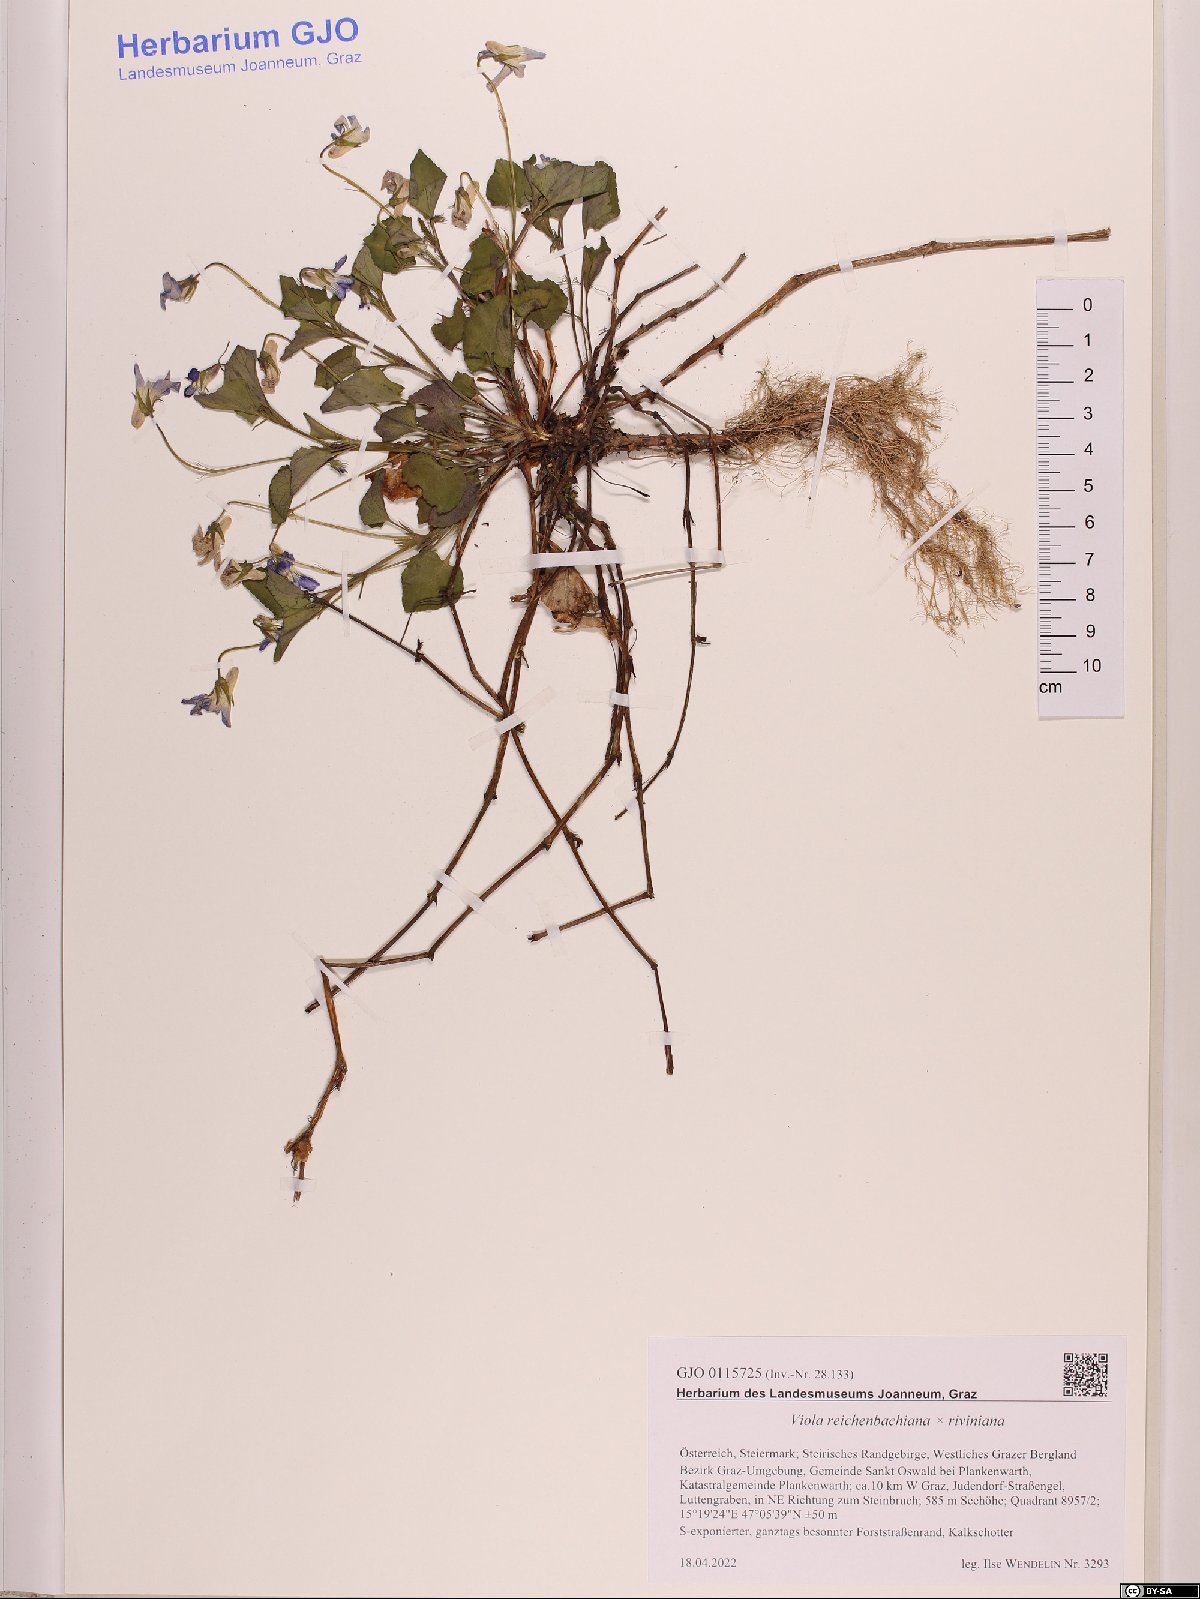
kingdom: Plantae
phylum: Tracheophyta
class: Magnoliopsida
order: Malpighiales
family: Violaceae
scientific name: Violaceae
